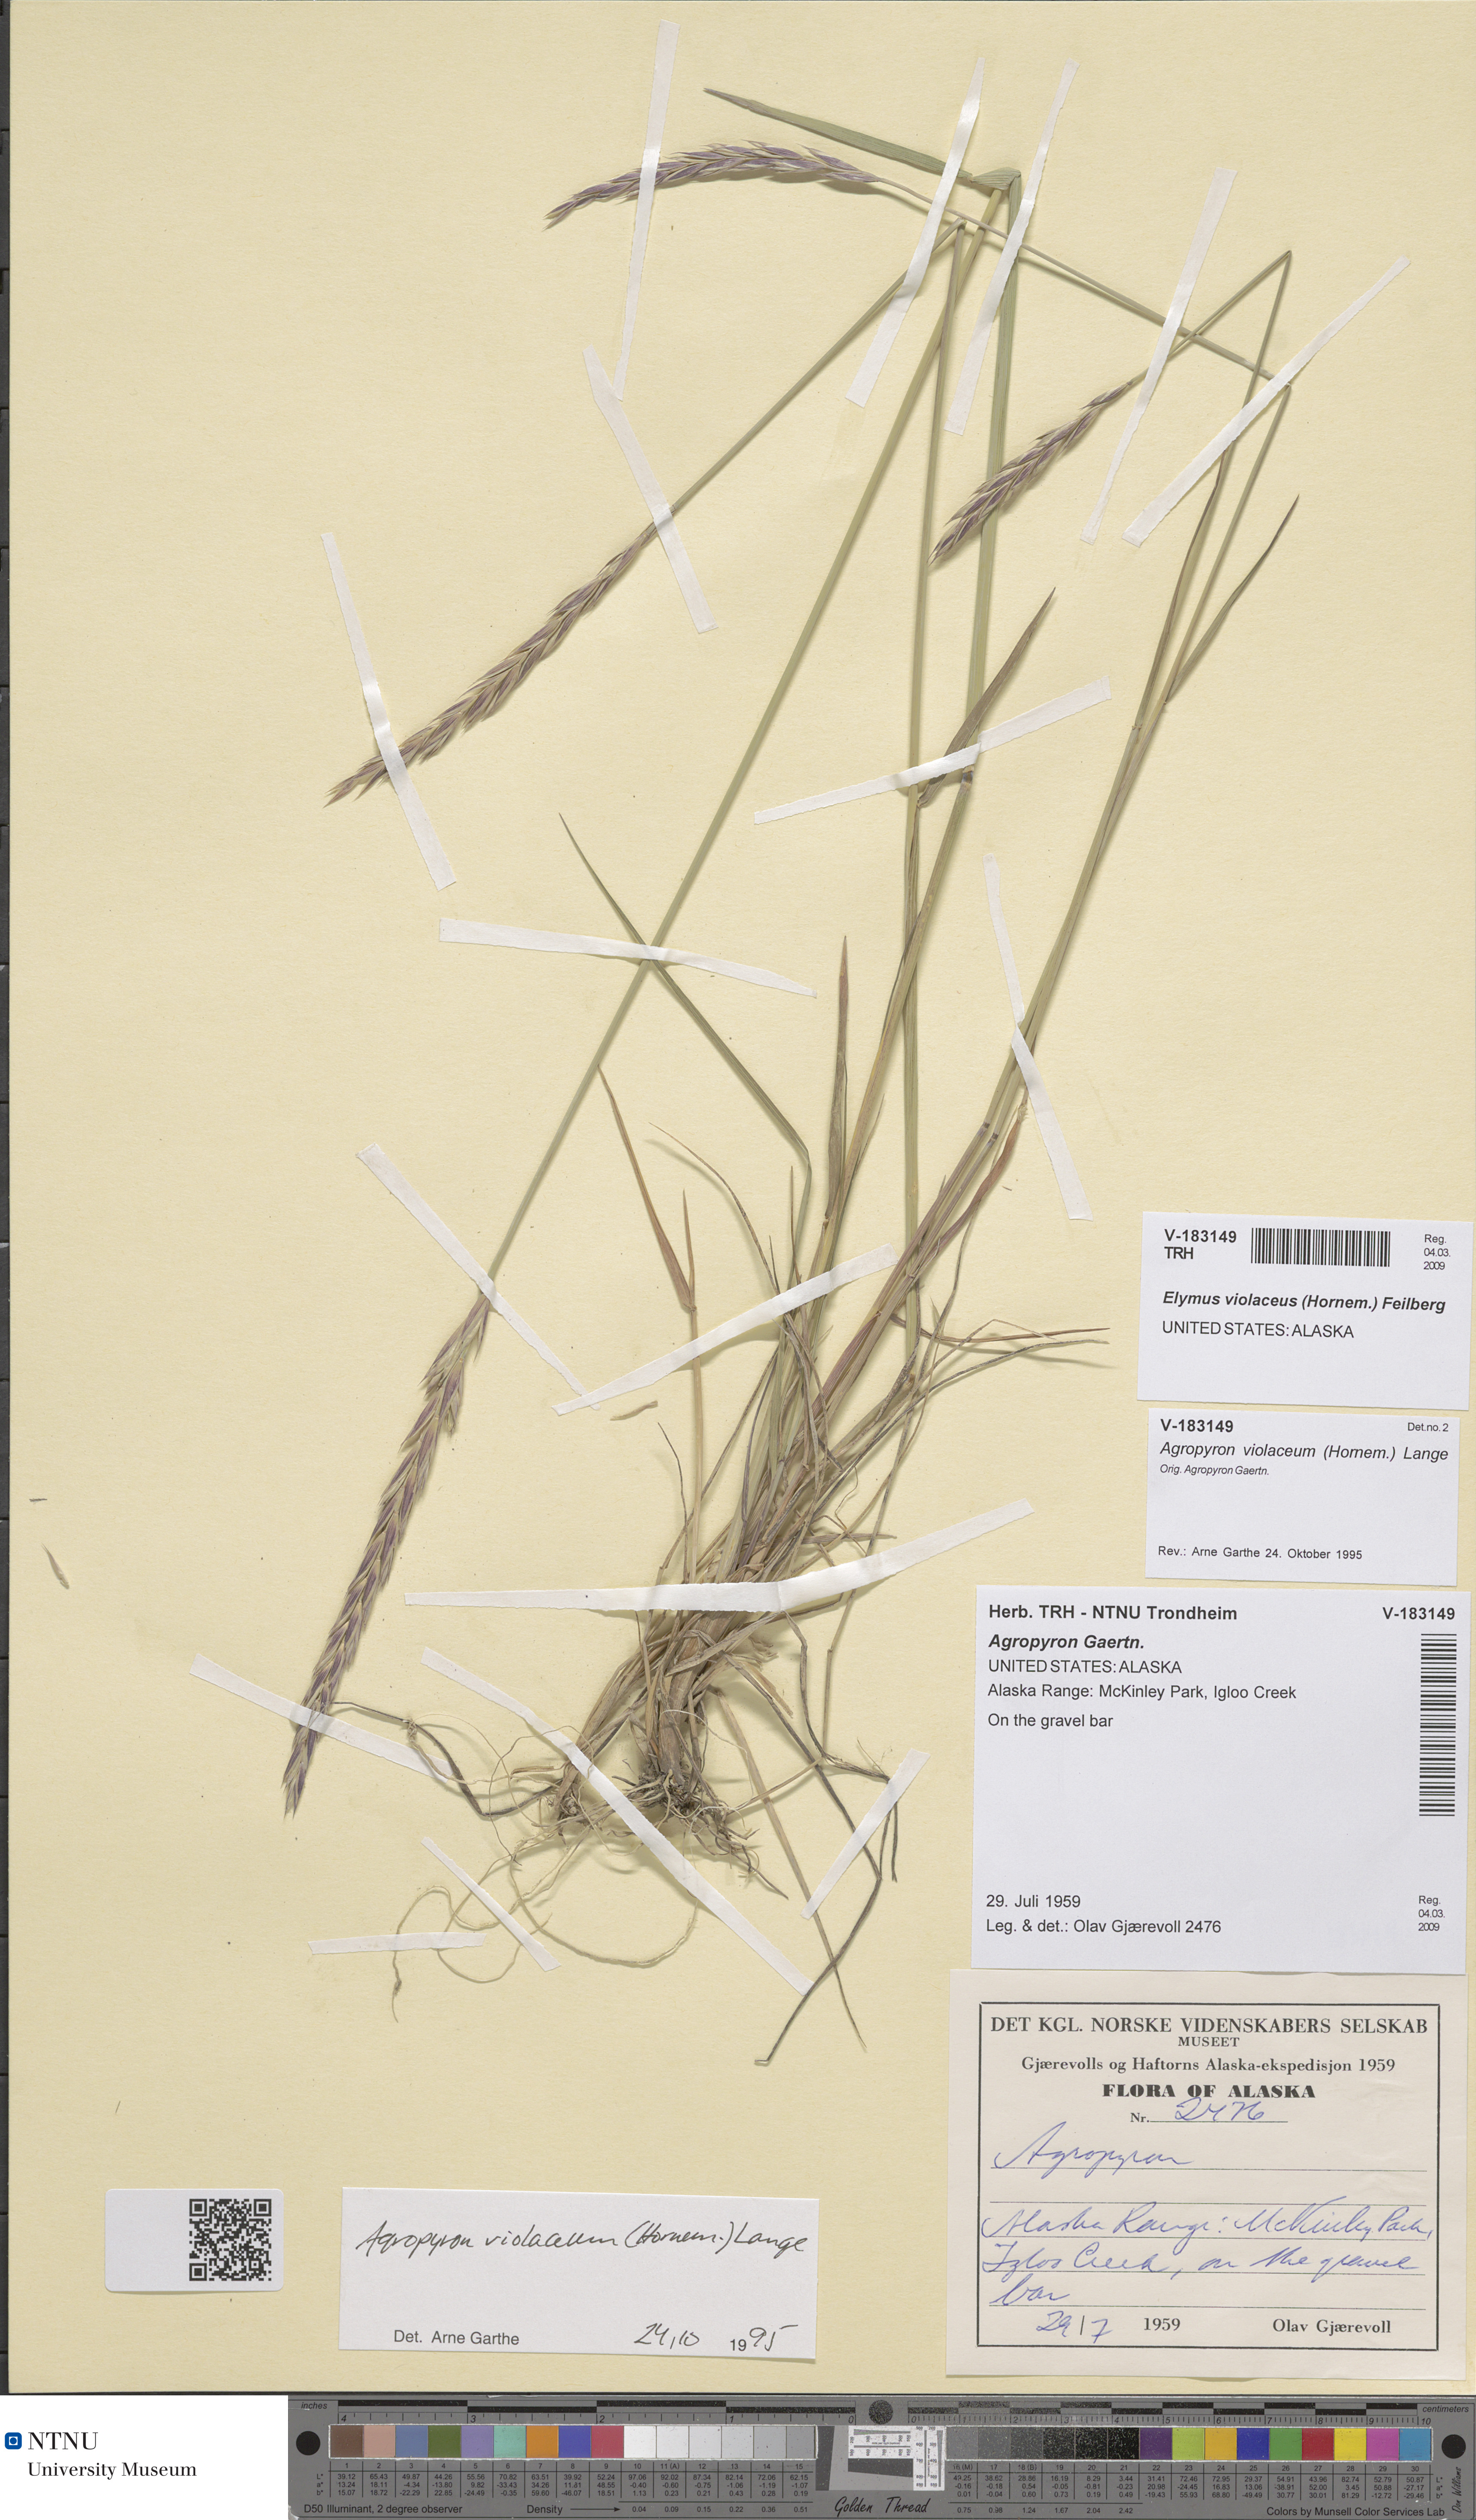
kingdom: Plantae
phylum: Tracheophyta
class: Liliopsida
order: Poales
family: Poaceae
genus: Elymus
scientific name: Elymus violaceus
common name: Arctic wheatgrass
